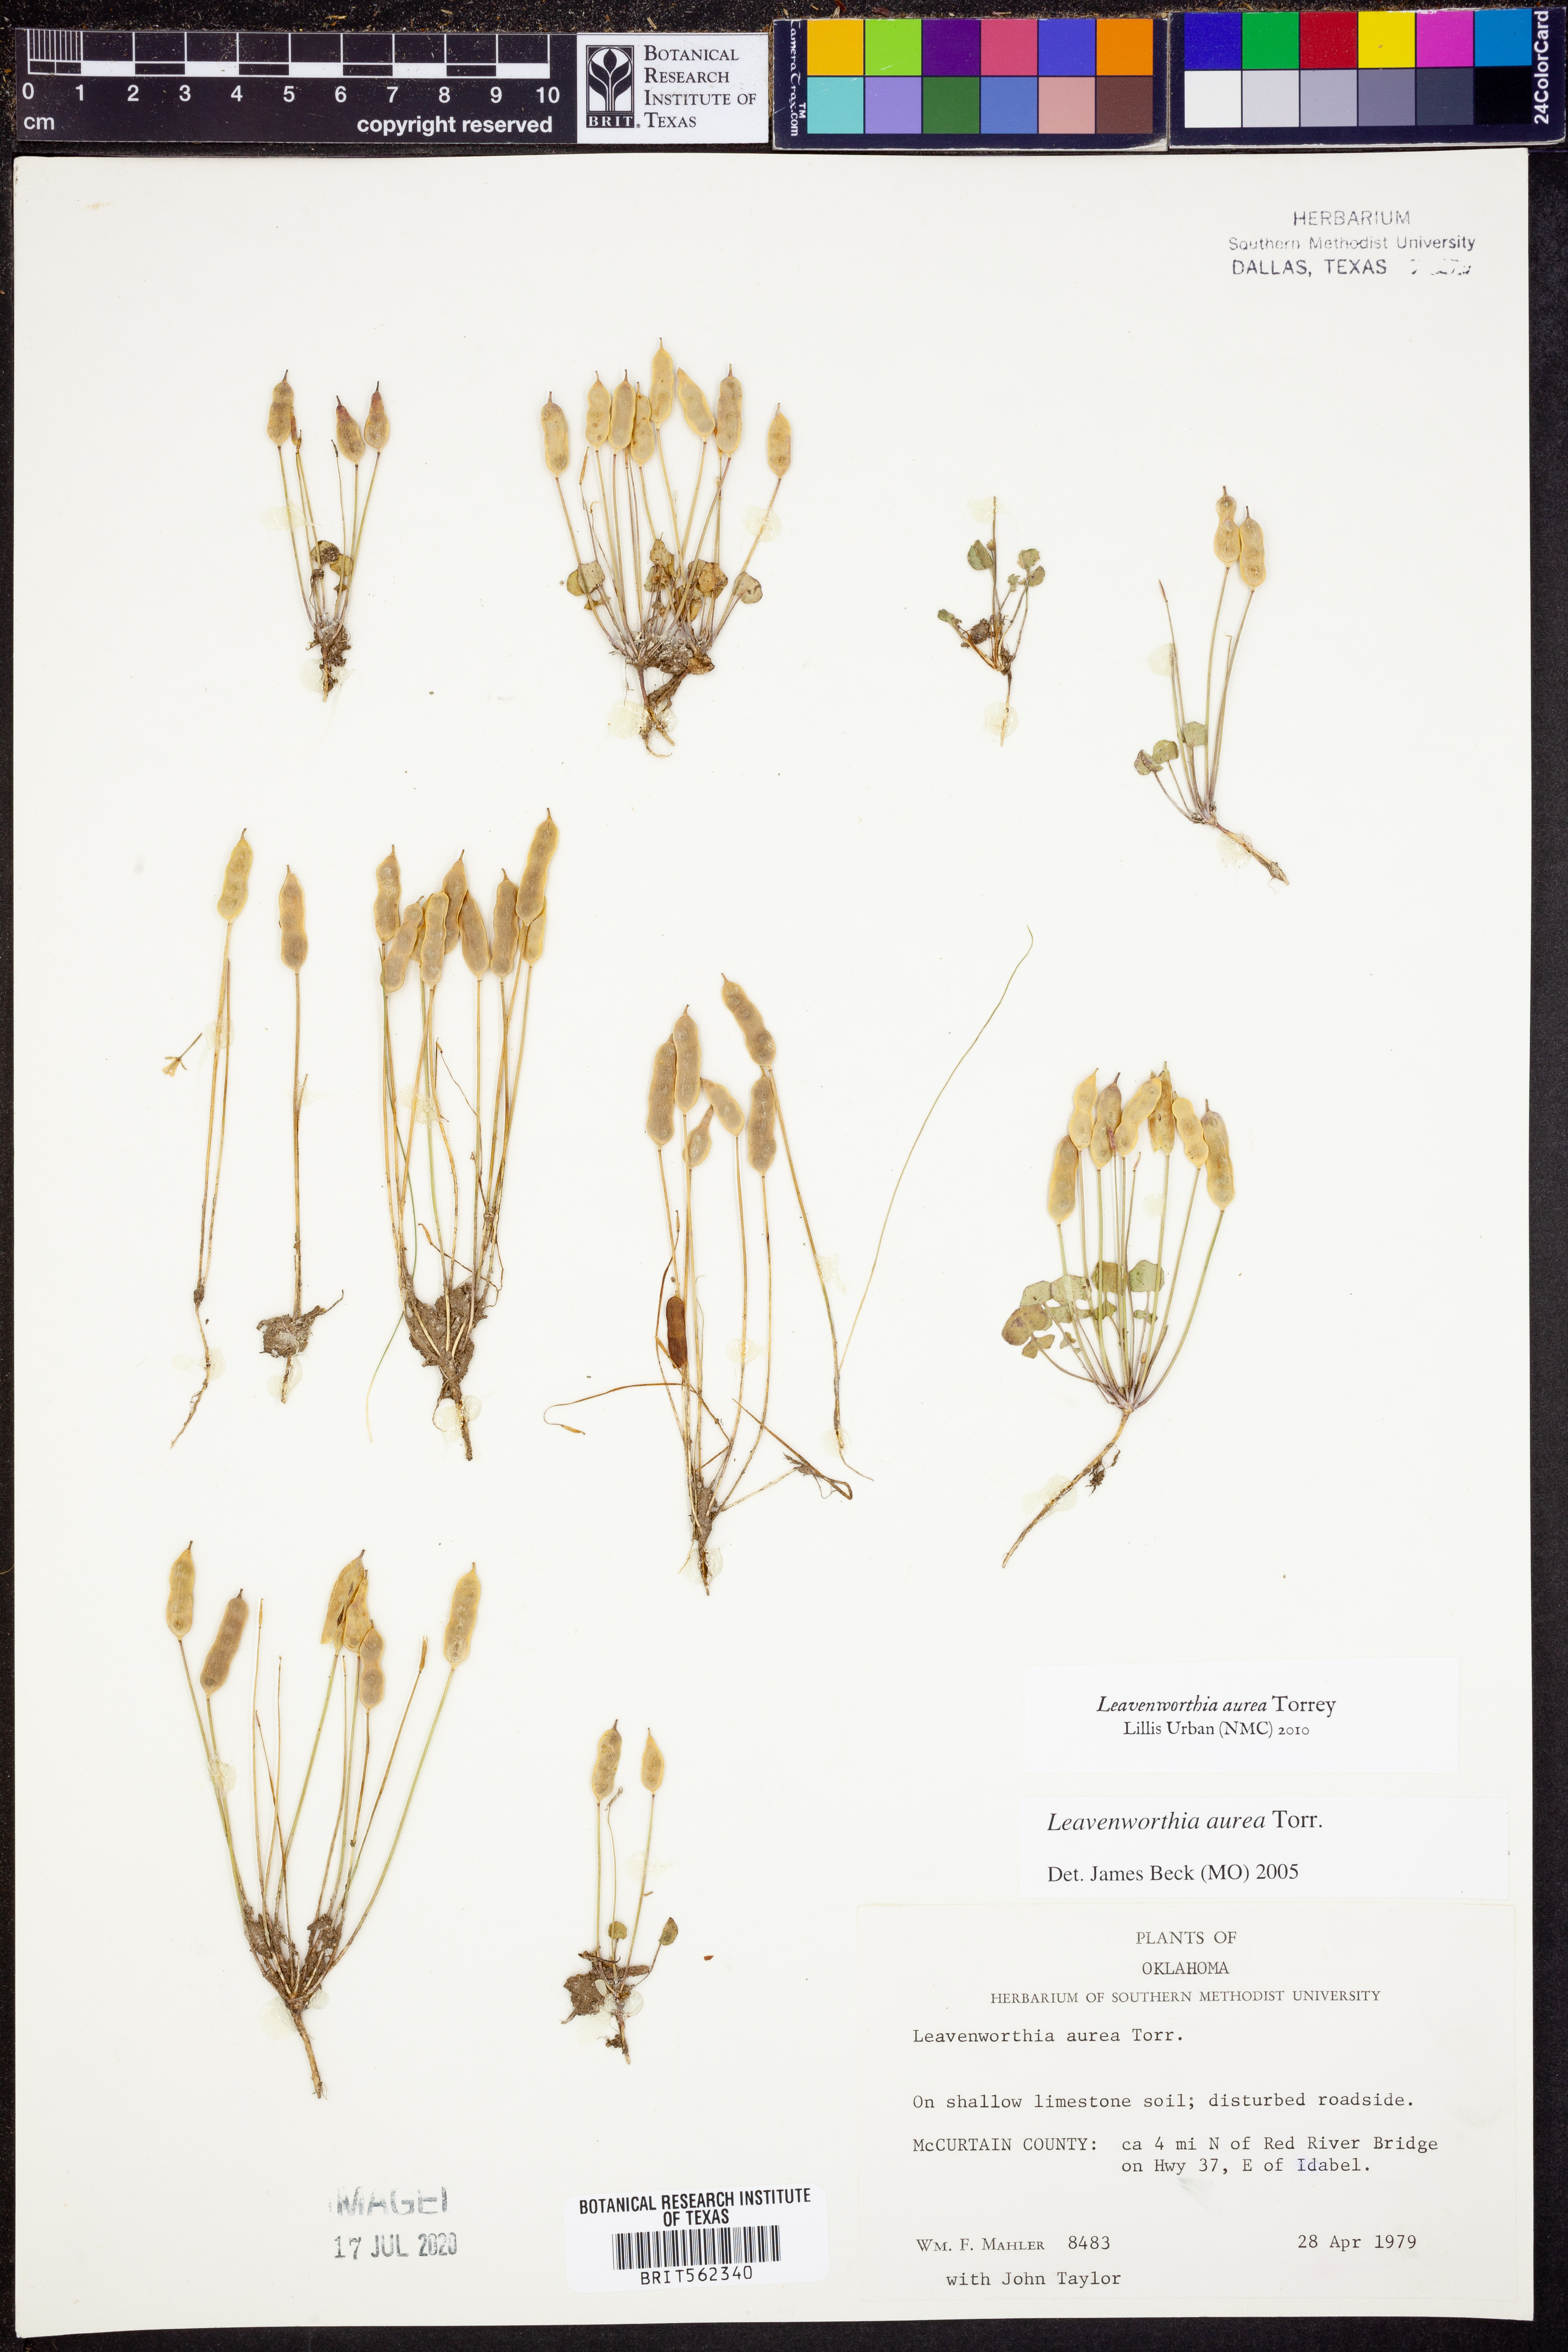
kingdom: Plantae
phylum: Tracheophyta
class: Magnoliopsida
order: Brassicales
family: Brassicaceae
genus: Leavenworthia
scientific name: Leavenworthia aurea
